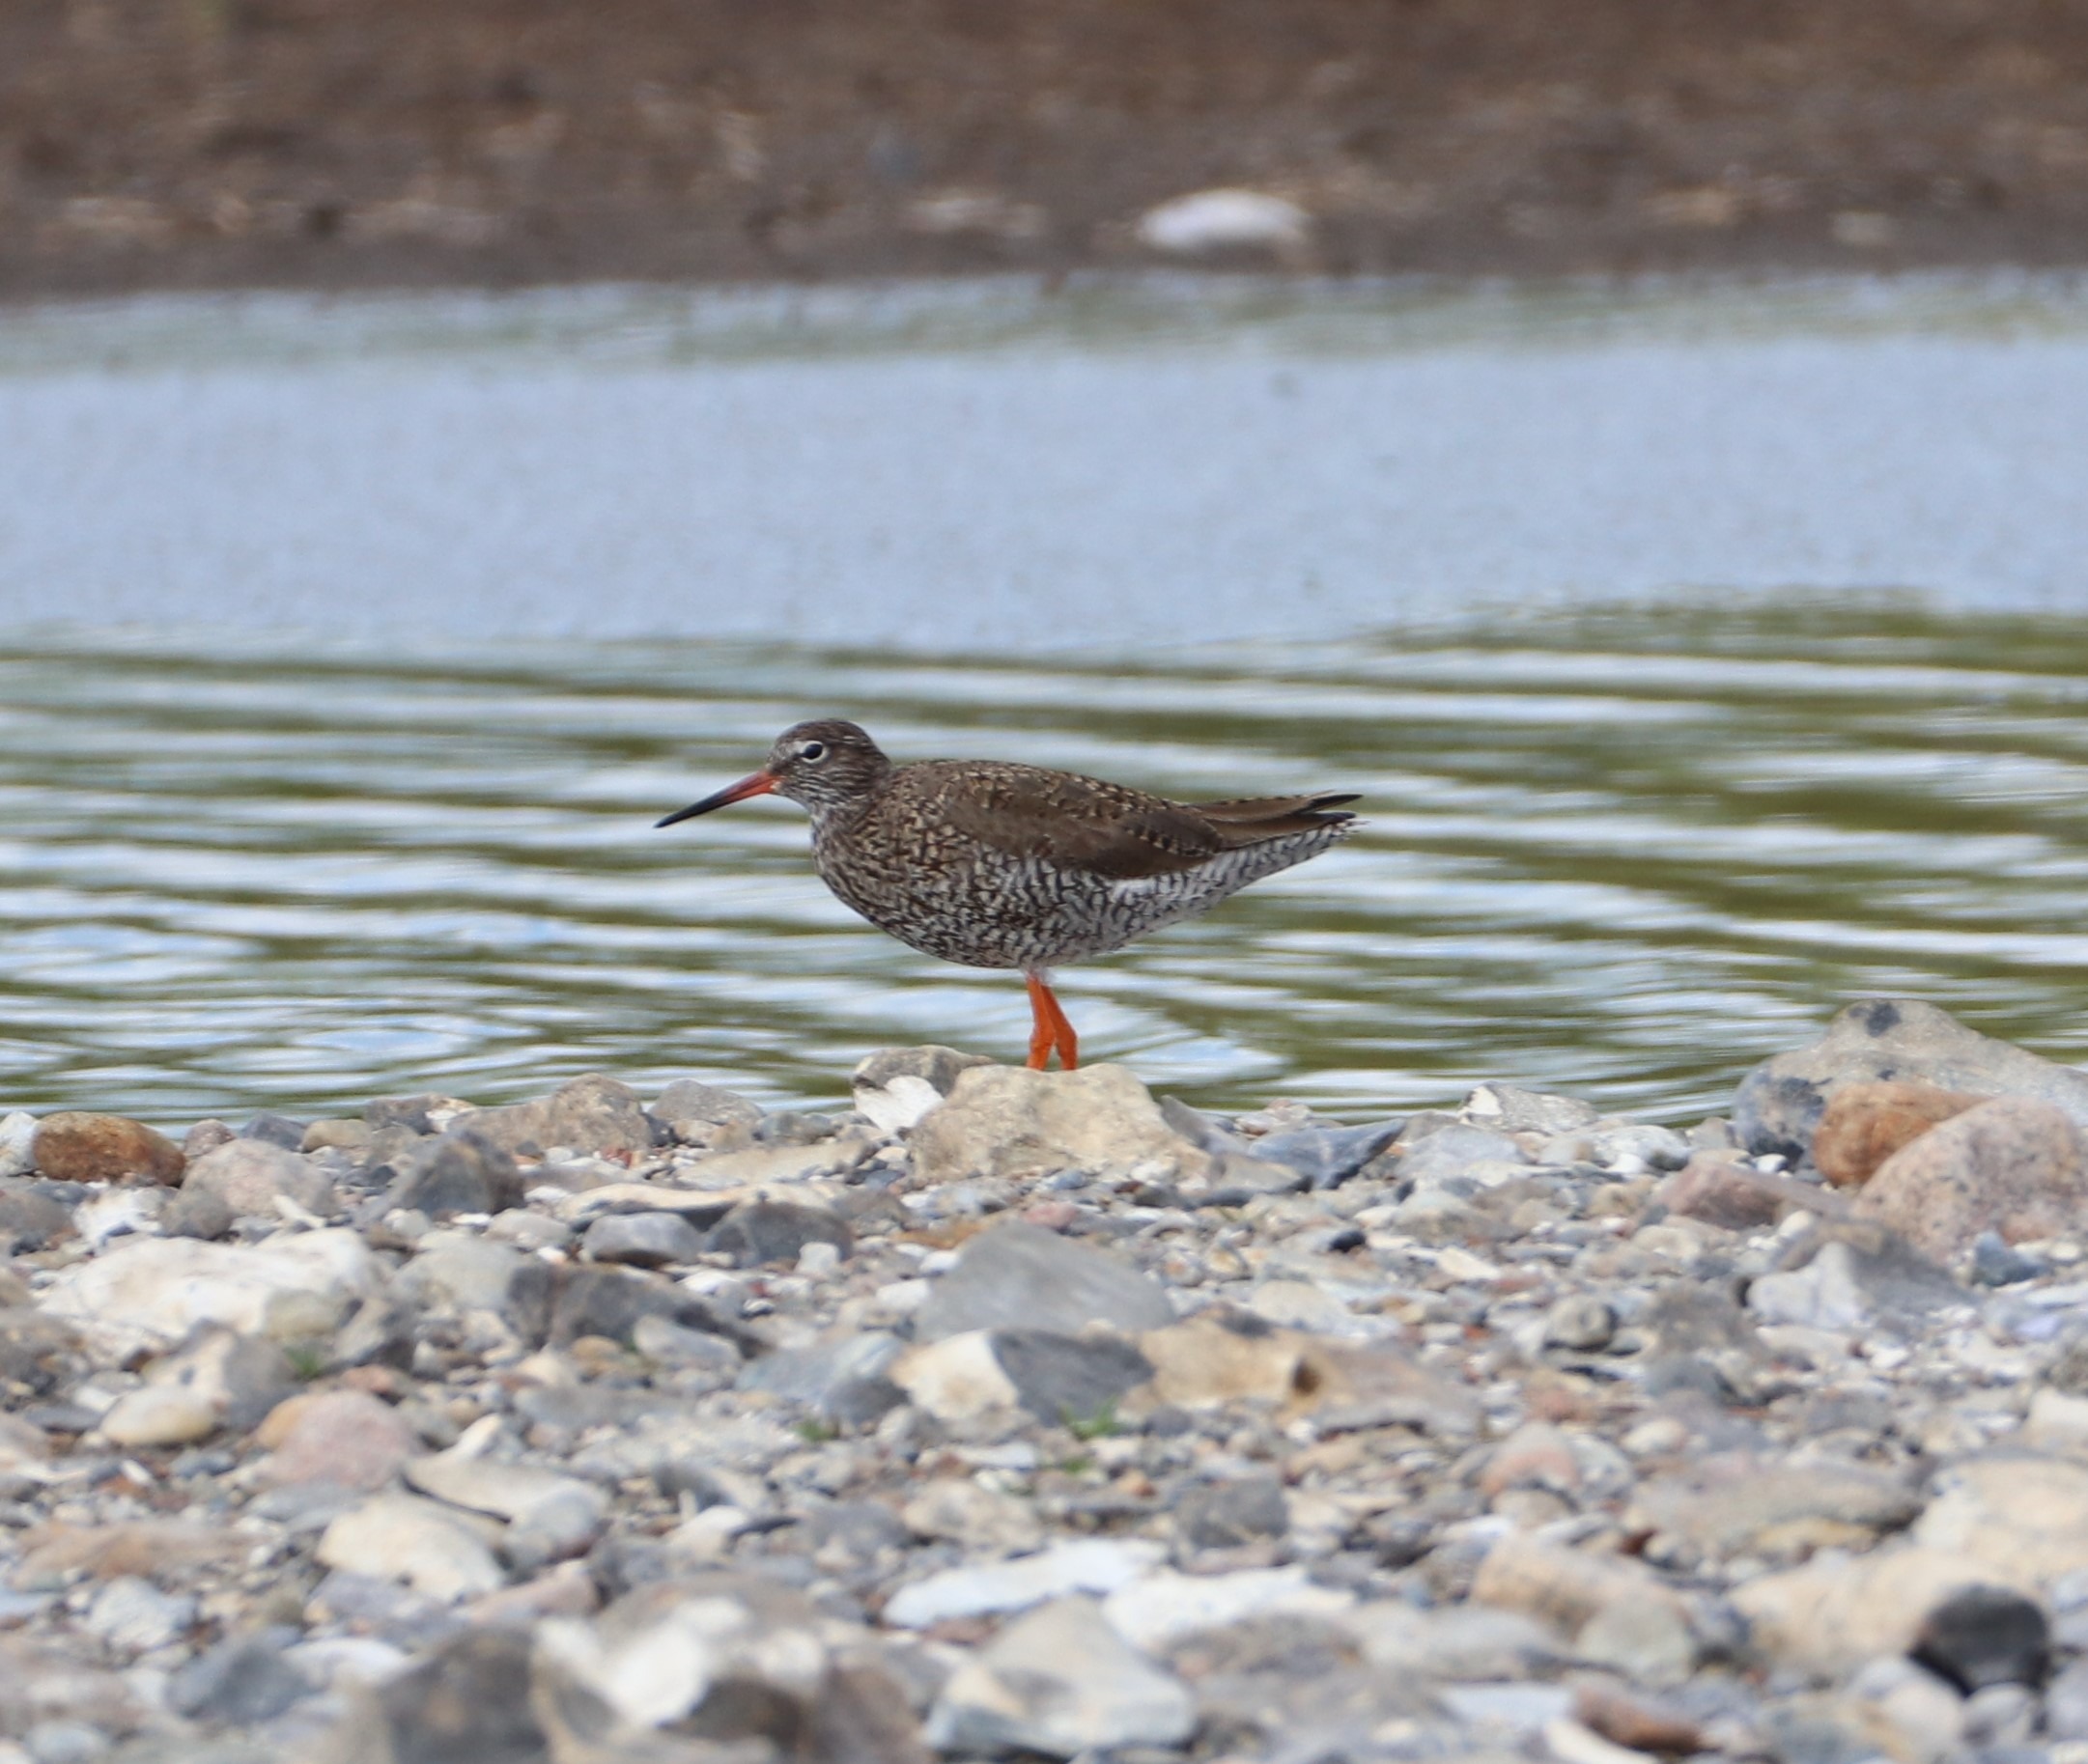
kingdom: Animalia
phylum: Chordata
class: Aves
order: Charadriiformes
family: Scolopacidae
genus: Tringa
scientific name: Tringa totanus
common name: Rødben
